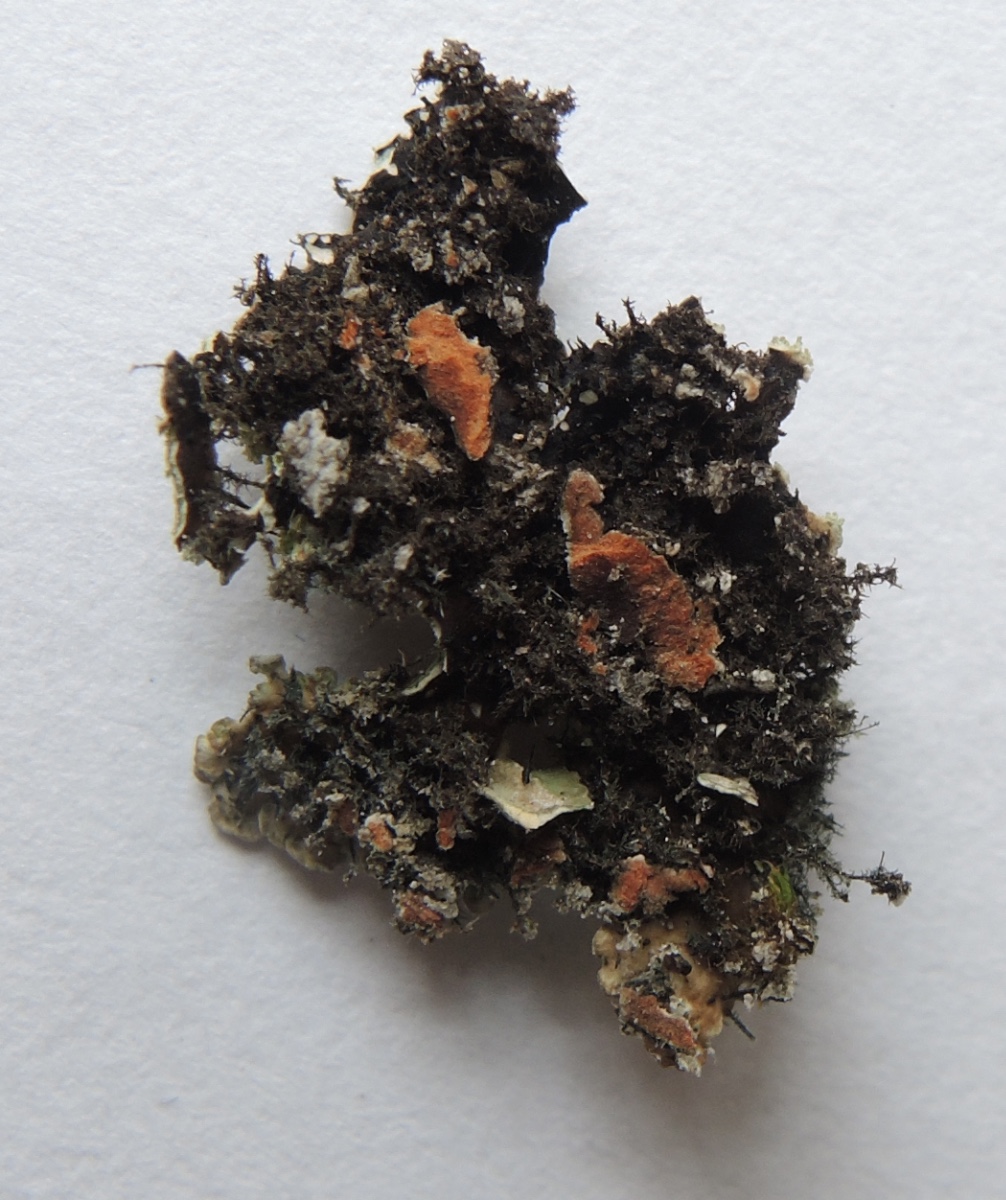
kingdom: Fungi
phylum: Ascomycota
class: Lecanoromycetes
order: Caliciales
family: Physciaceae
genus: Physconia
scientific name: Physconia enteroxantha
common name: grynet dugrosetlav
